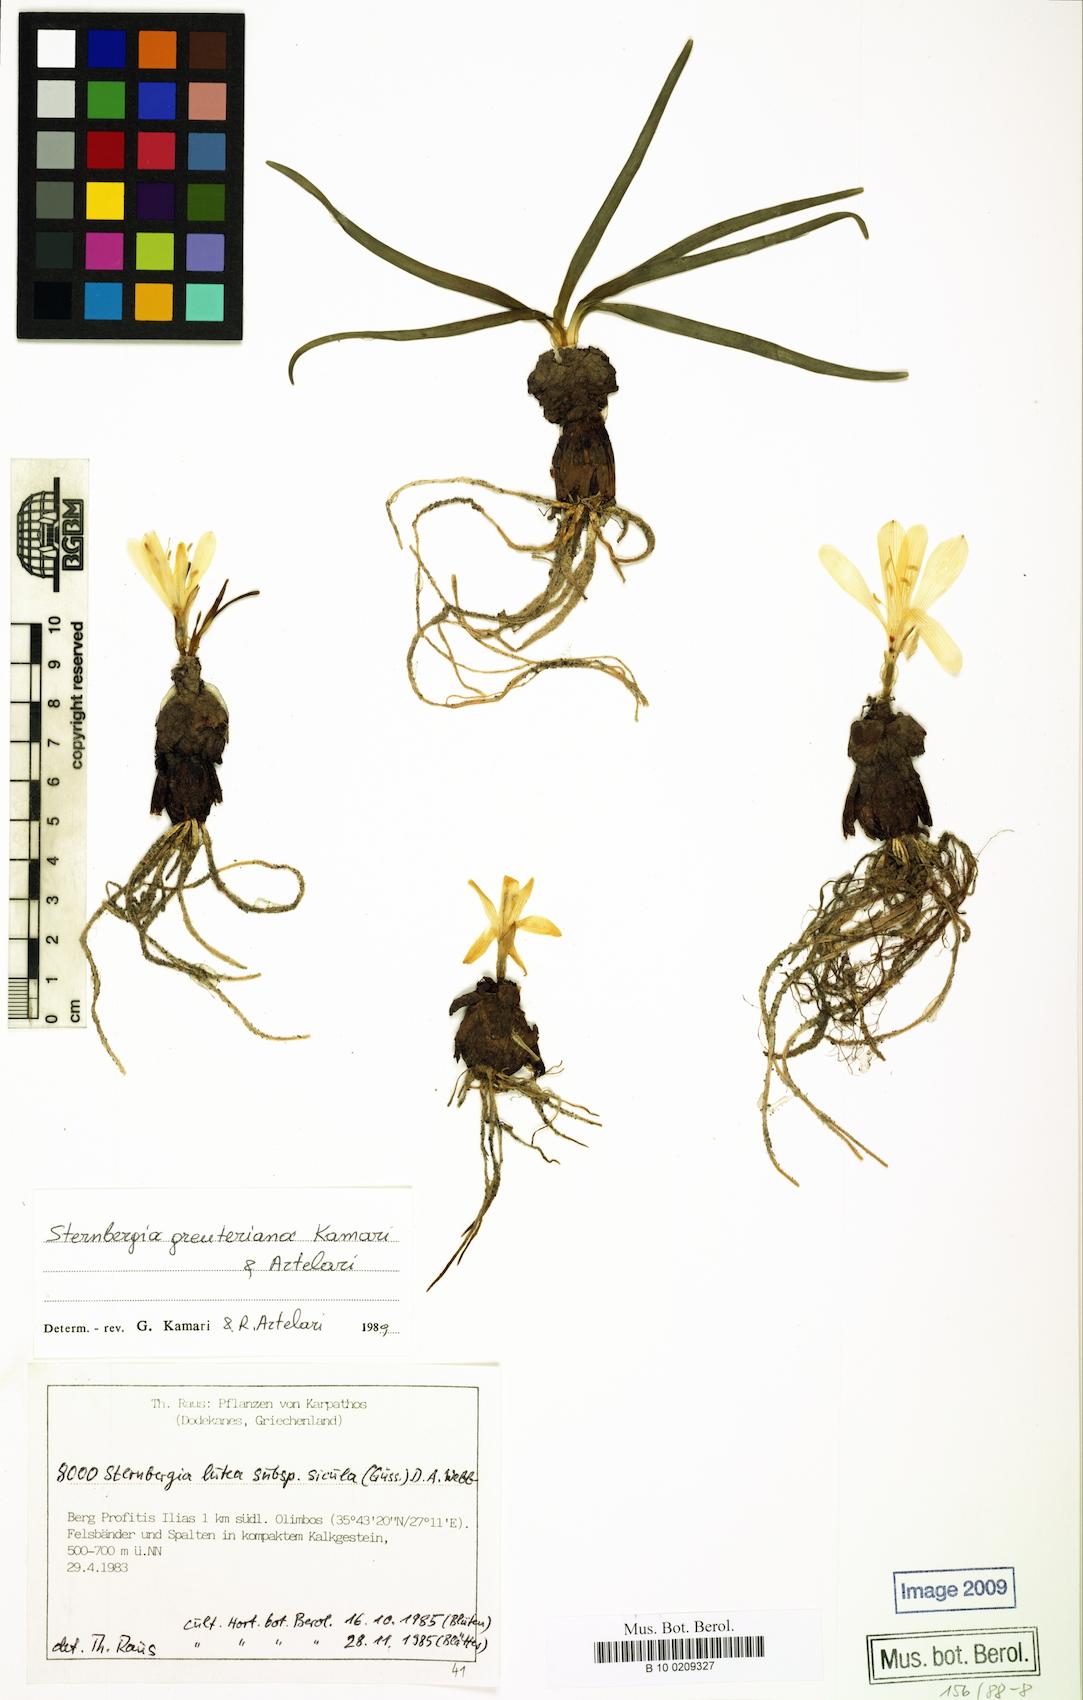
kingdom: Plantae
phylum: Tracheophyta
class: Liliopsida
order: Asparagales
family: Amaryllidaceae
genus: Sternbergia
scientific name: Sternbergia lutea
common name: Winter daffodil
